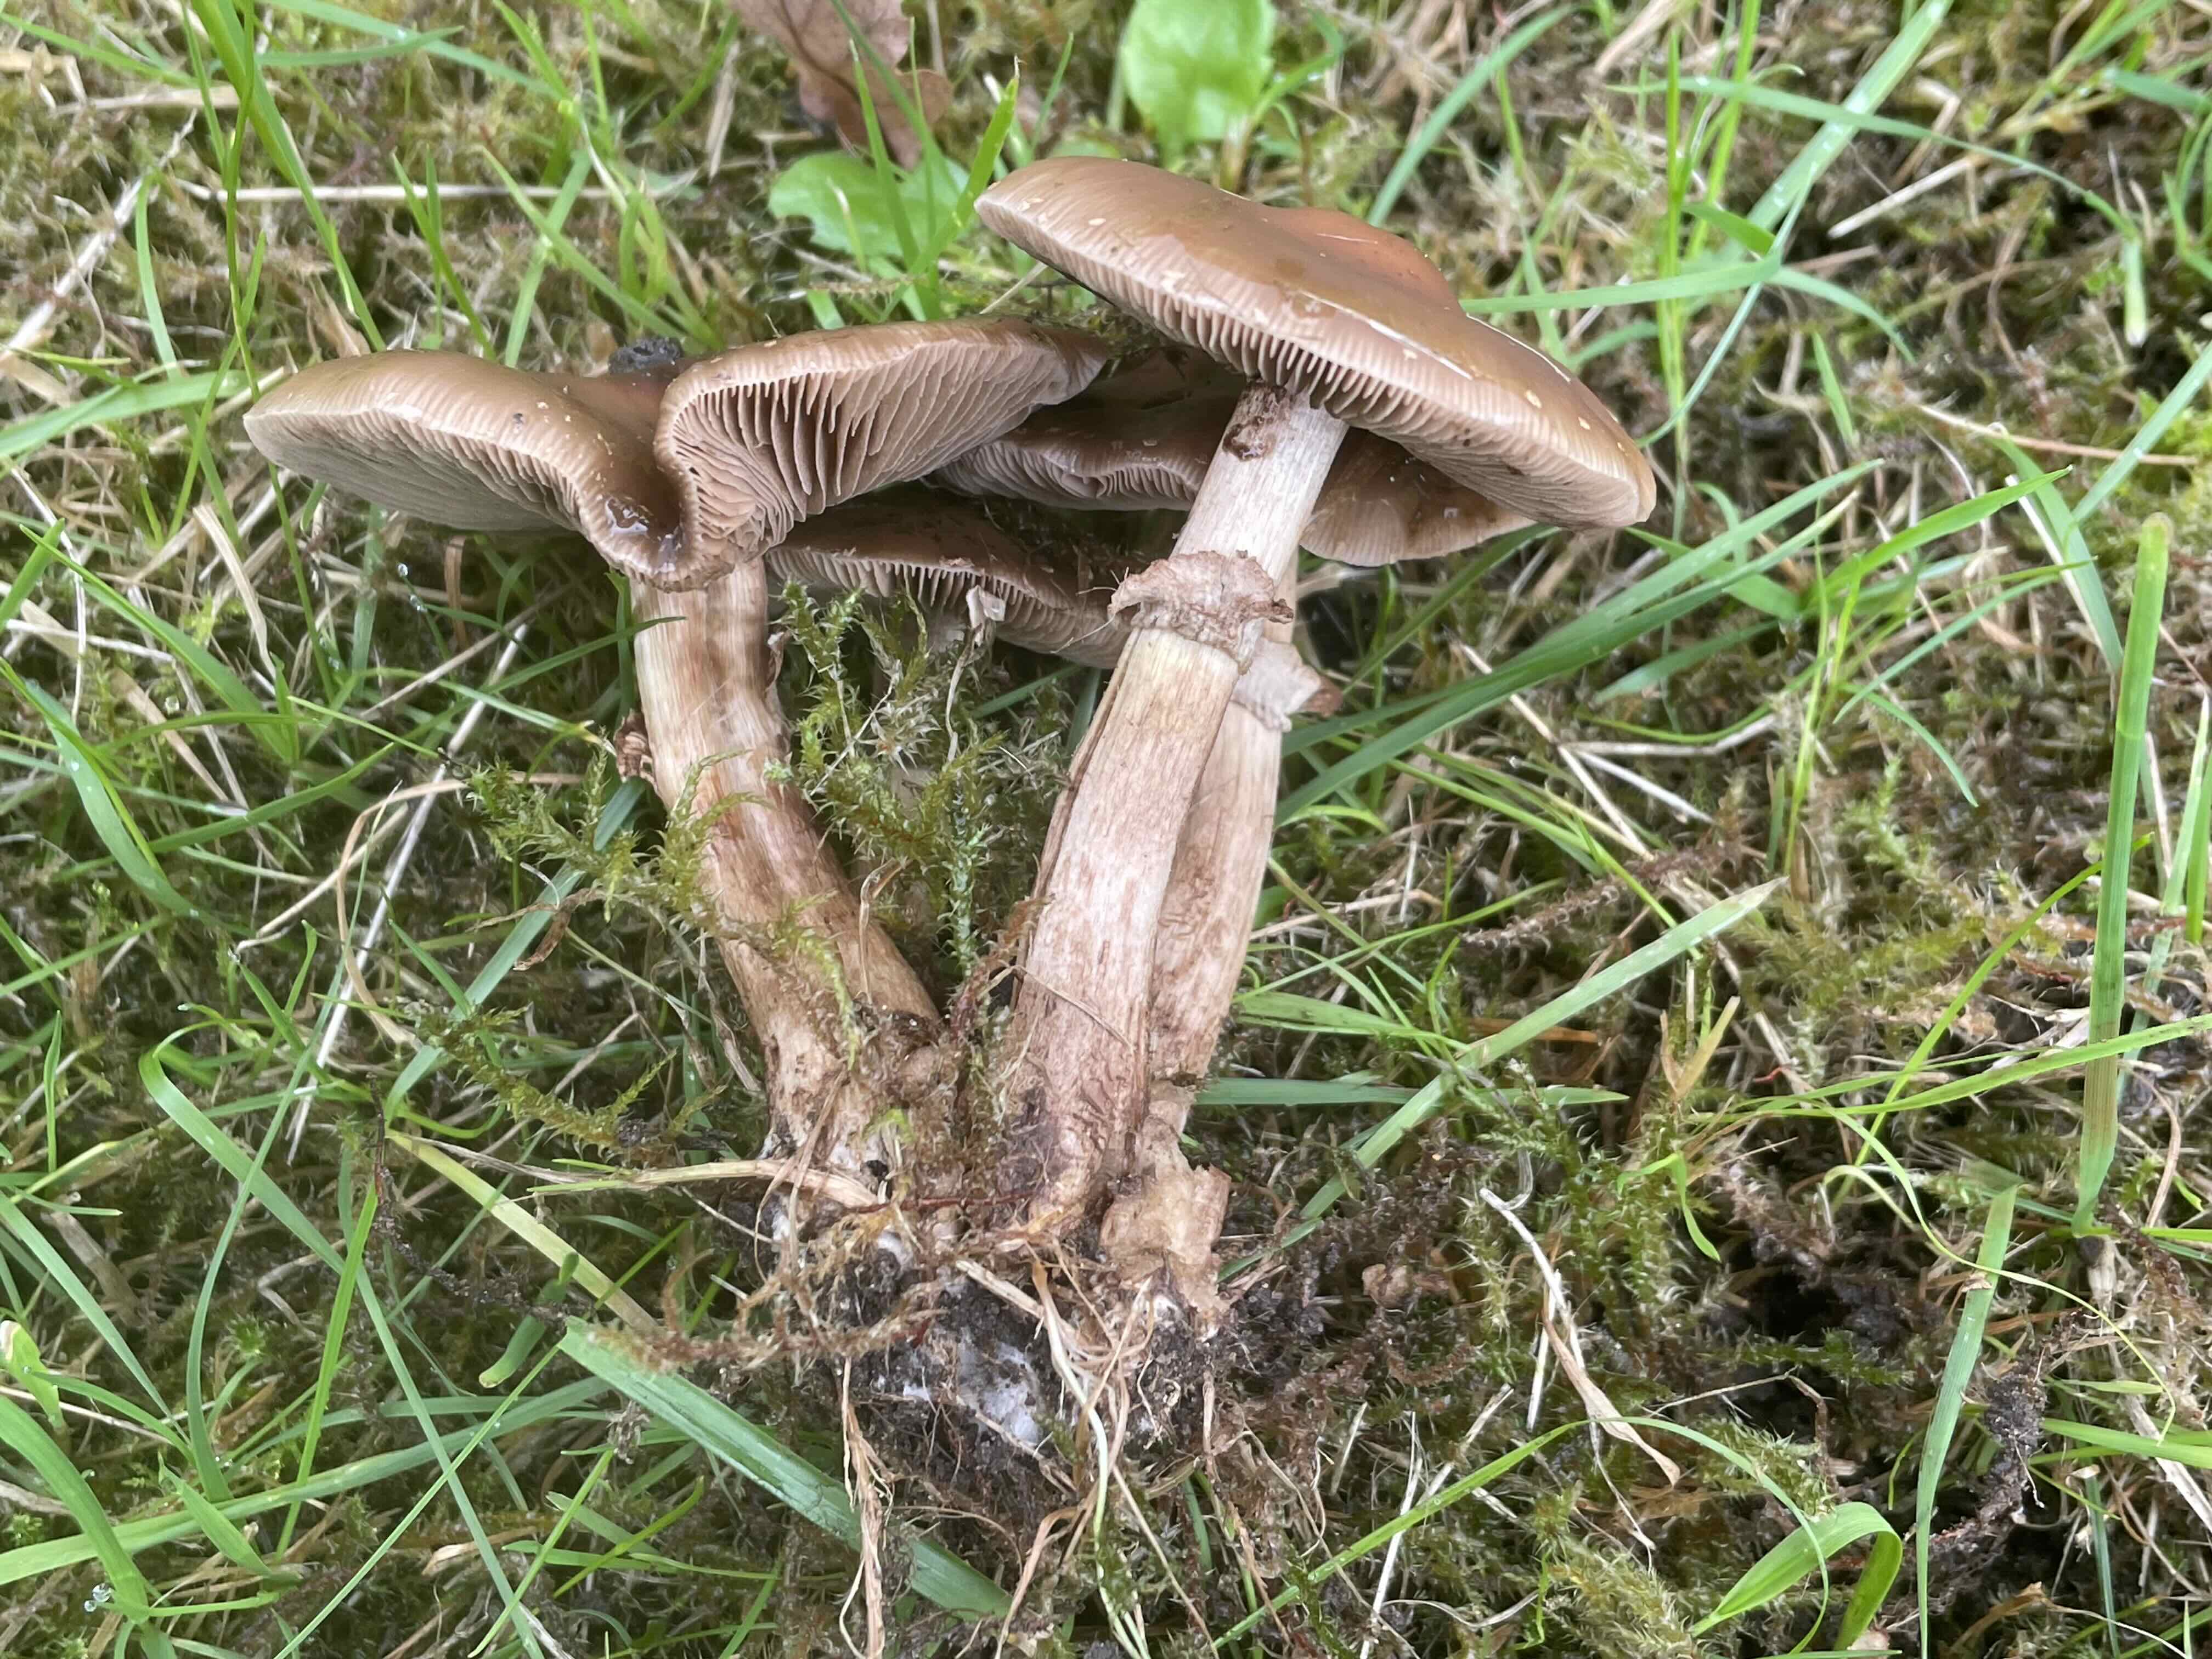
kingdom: Fungi
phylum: Basidiomycota
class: Agaricomycetes
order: Agaricales
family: Tubariaceae
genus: Cyclocybe
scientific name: Cyclocybe erebia
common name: mørk agerhat
